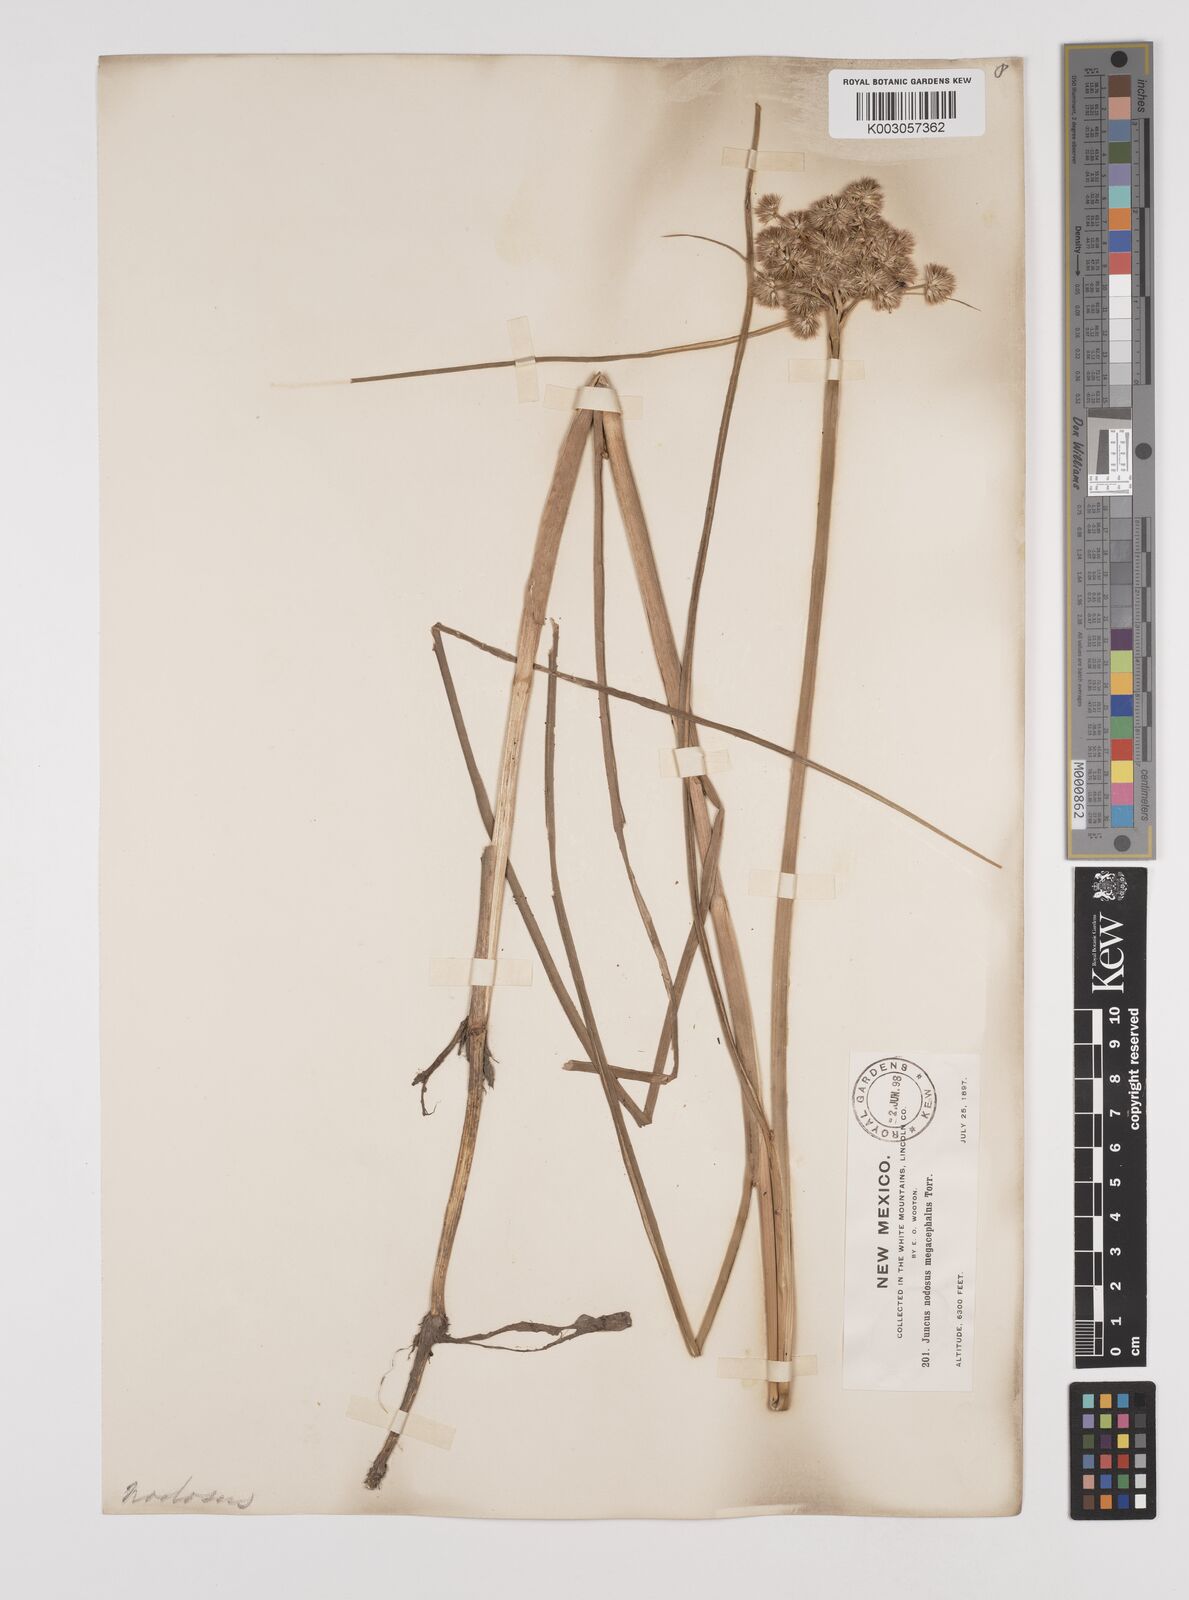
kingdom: Plantae
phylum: Tracheophyta
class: Liliopsida
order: Poales
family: Juncaceae
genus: Juncus
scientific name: Juncus nodosus
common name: Knotted rush
